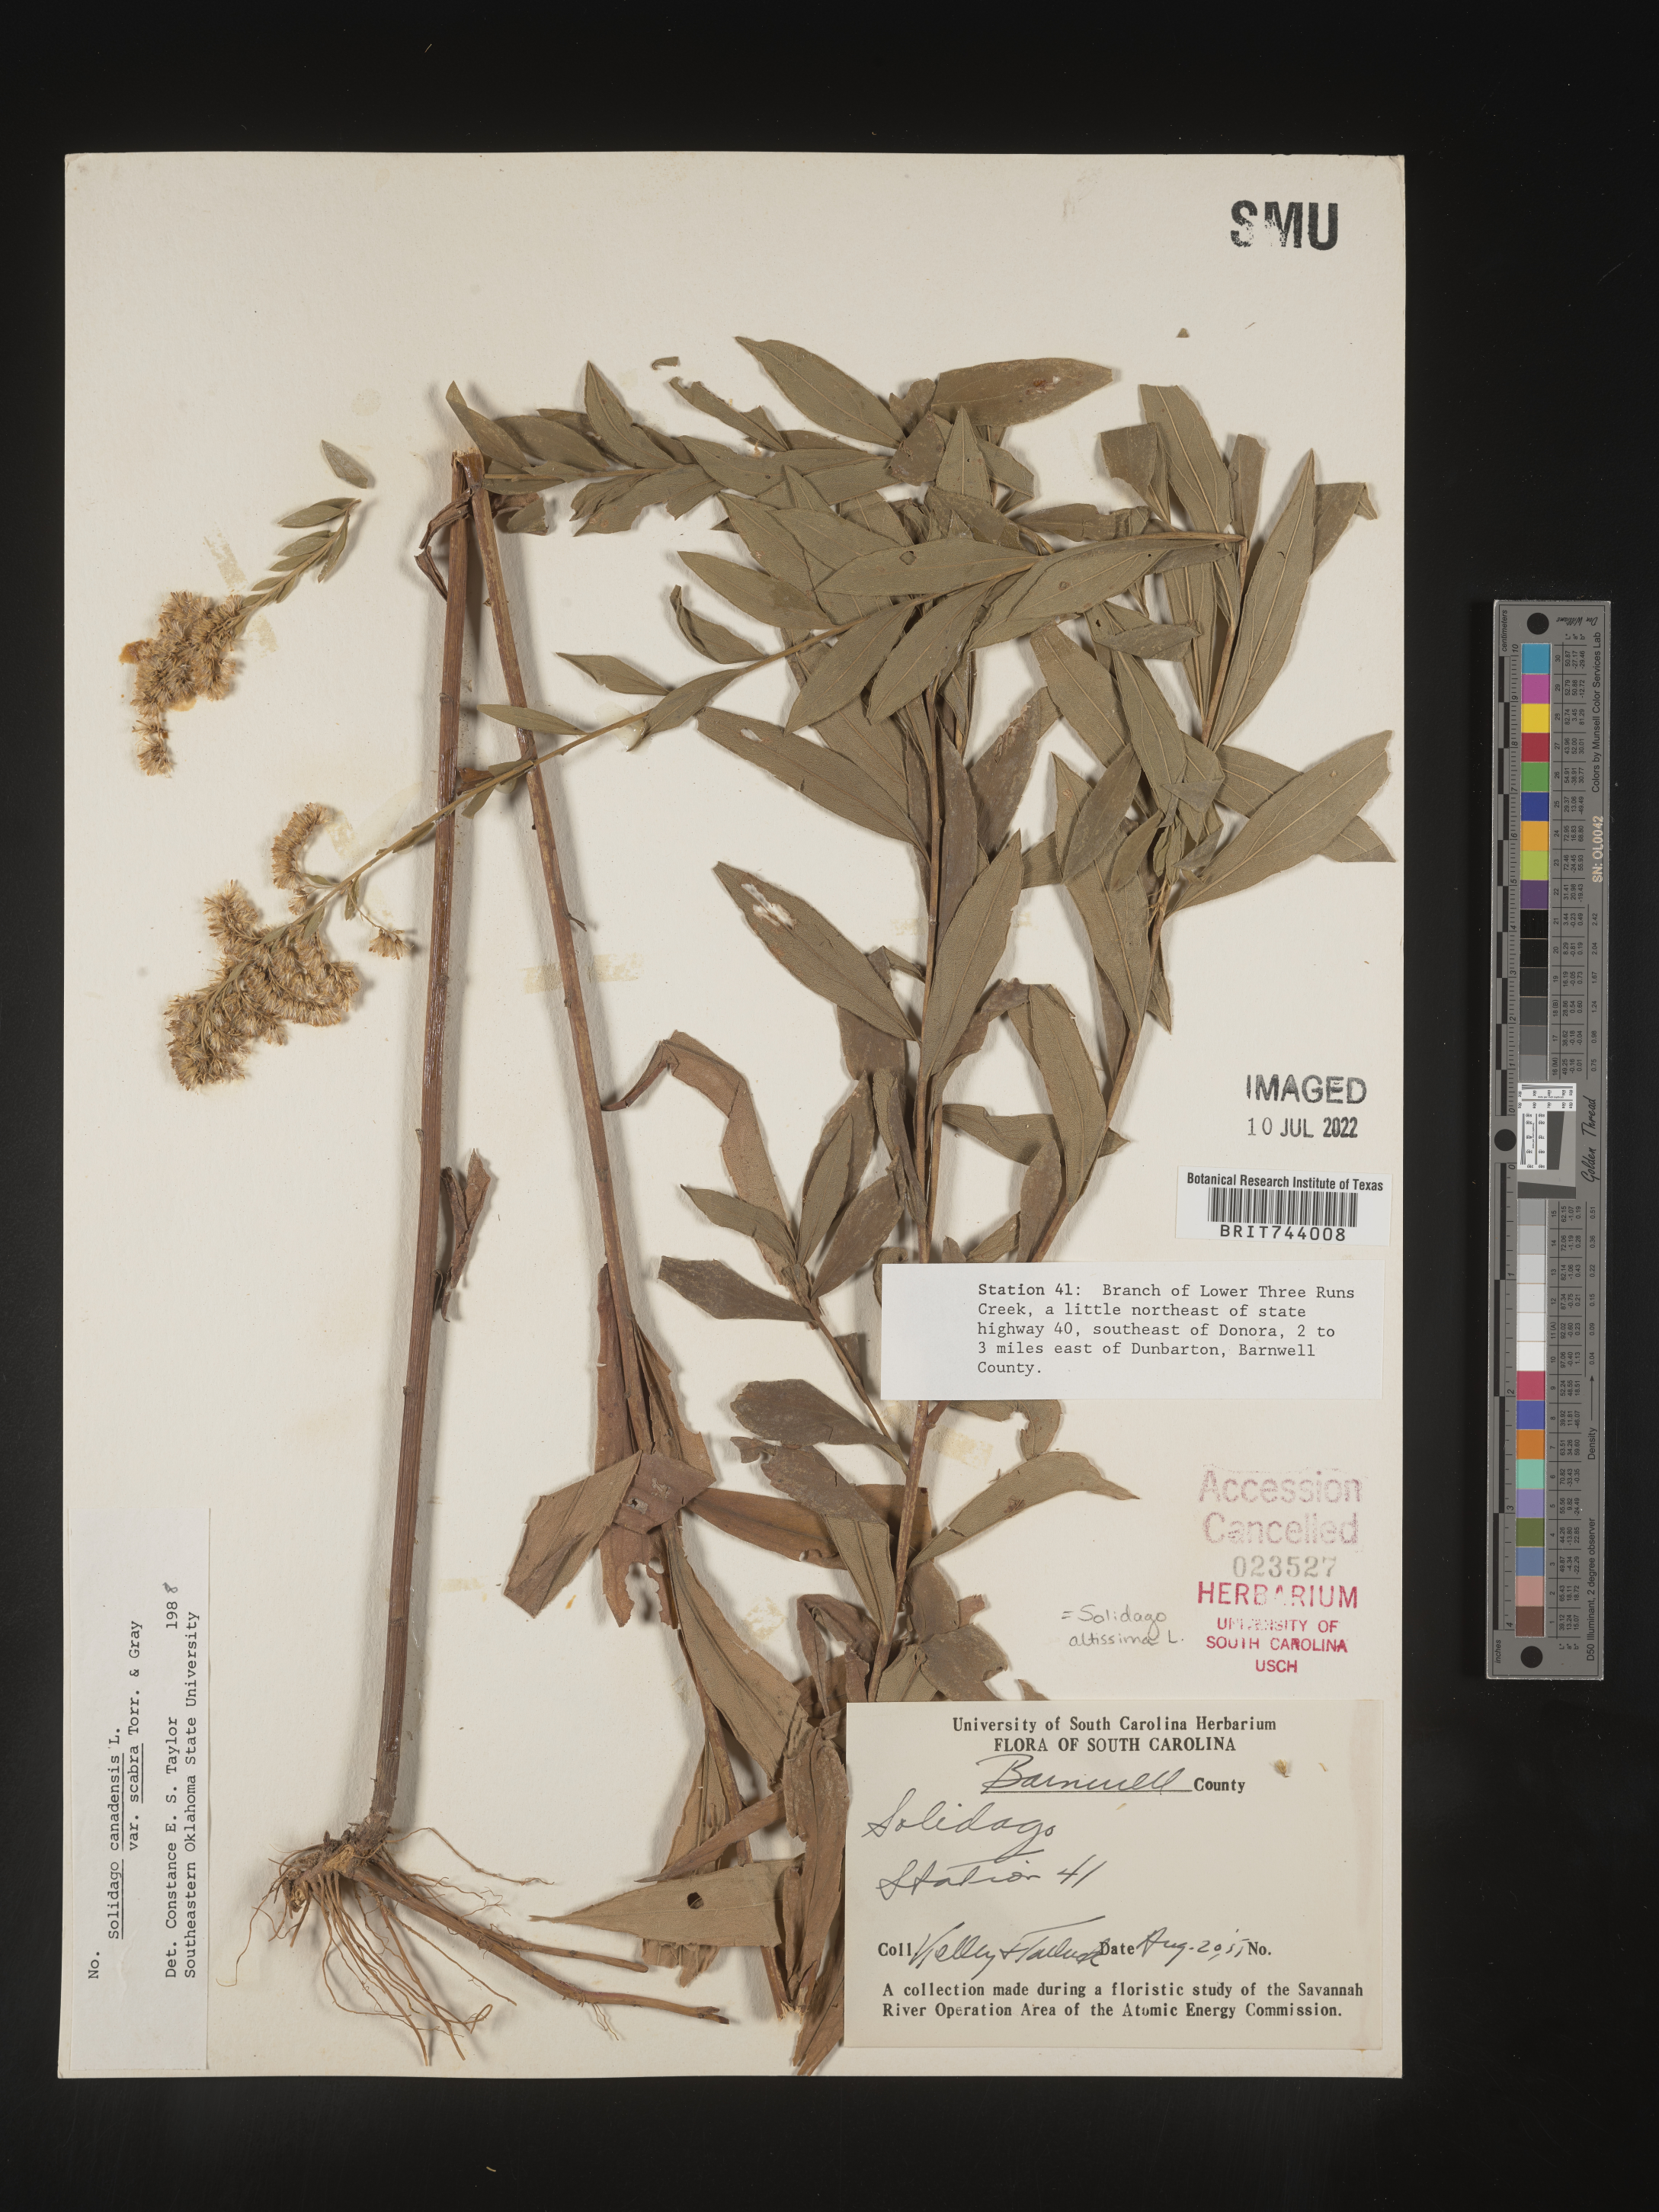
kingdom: Plantae
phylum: Tracheophyta
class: Magnoliopsida
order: Asterales
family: Asteraceae
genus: Solidago
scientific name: Solidago altissima
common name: Late goldenrod
